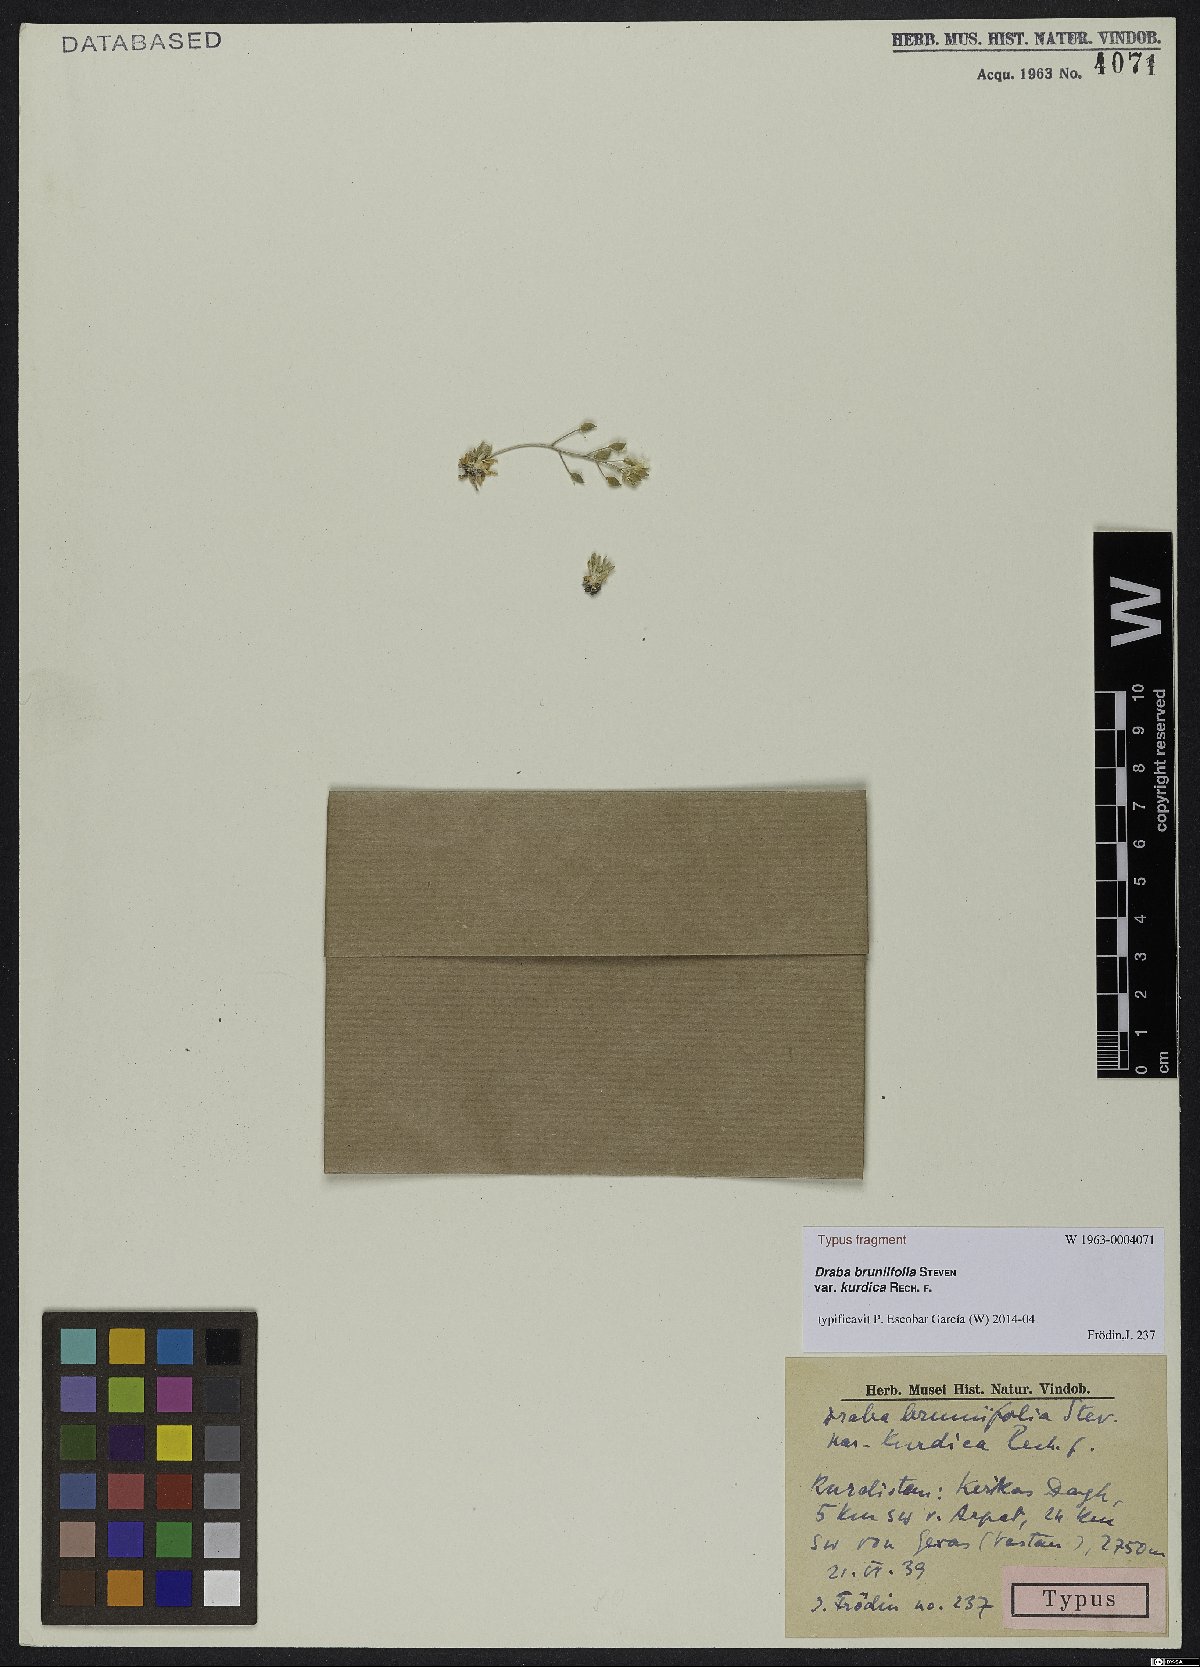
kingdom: Plantae
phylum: Tracheophyta
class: Magnoliopsida
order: Brassicales
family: Brassicaceae
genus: Draba
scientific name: Draba bruniifolia
